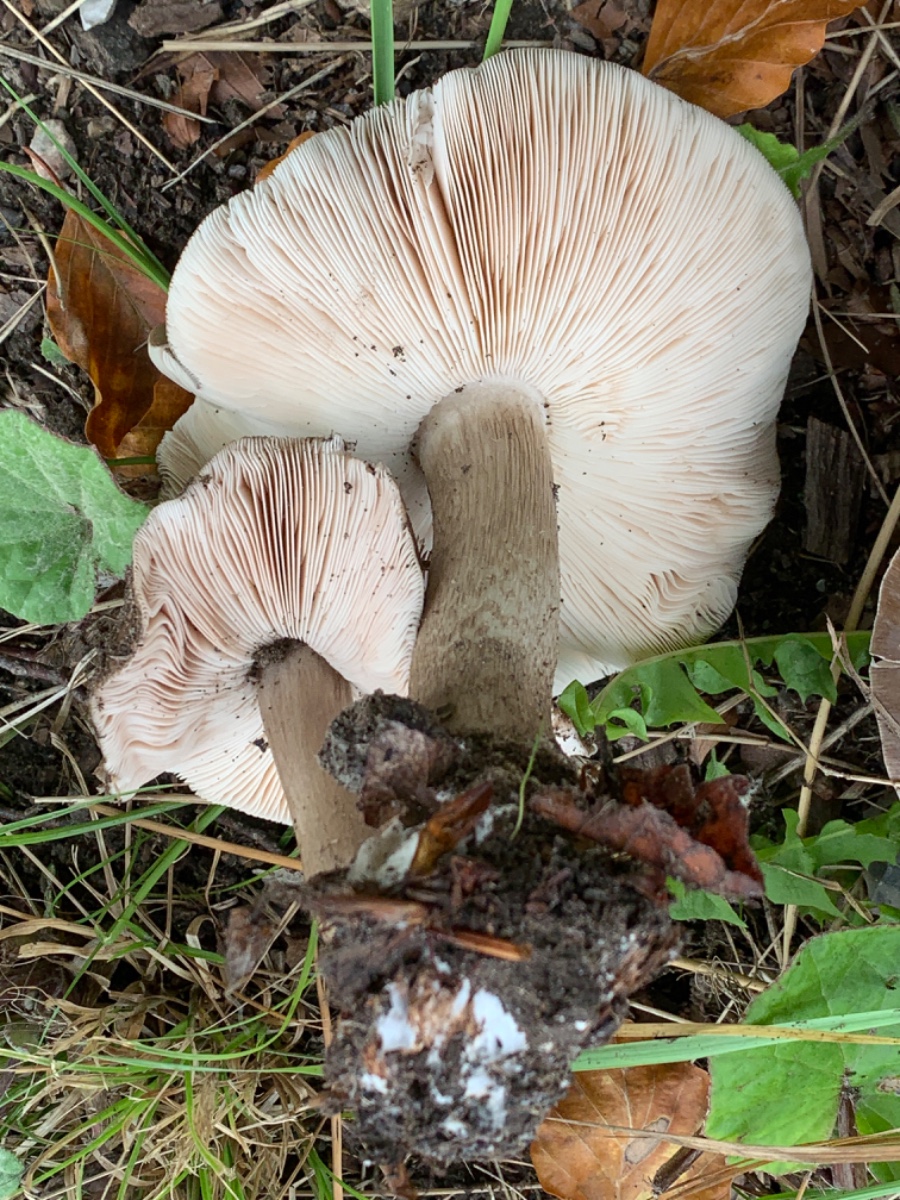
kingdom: Fungi
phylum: Basidiomycota
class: Agaricomycetes
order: Agaricales
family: Pluteaceae
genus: Pluteus
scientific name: Pluteus cervinus
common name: sodfarvet skærmhat
